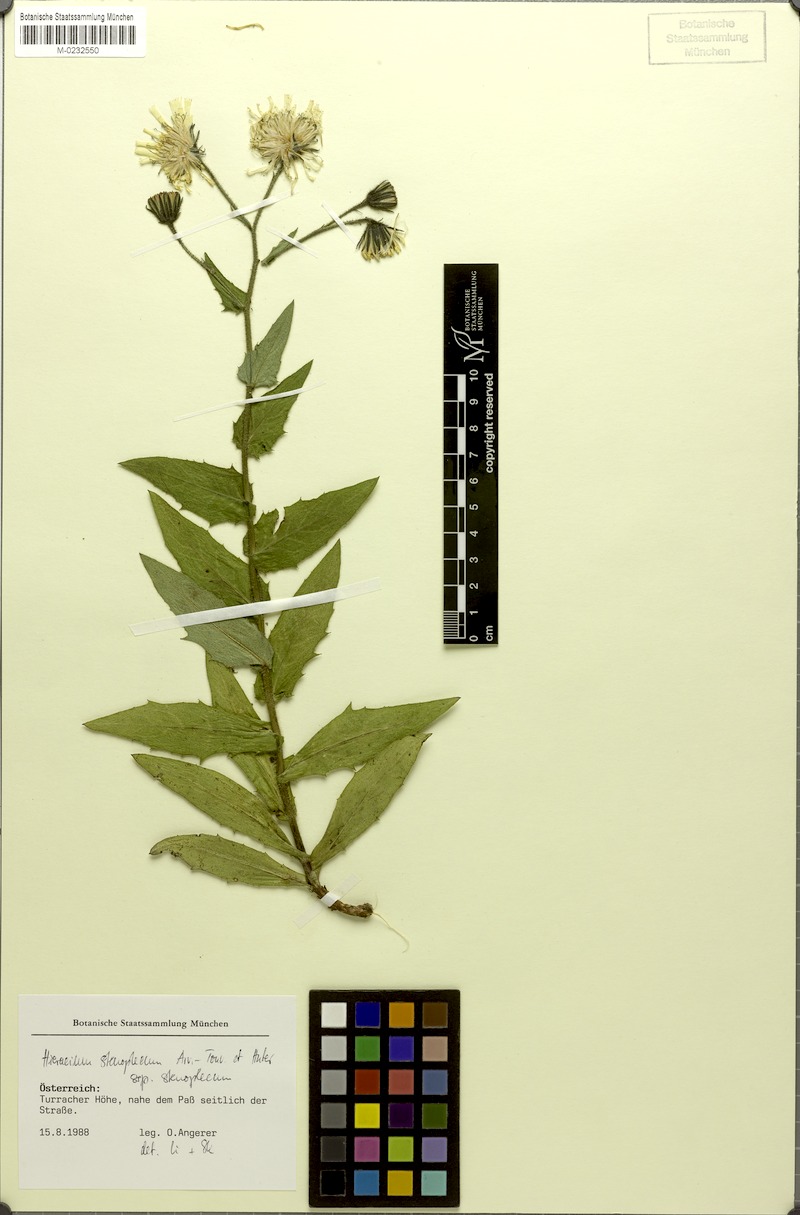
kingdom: Plantae
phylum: Tracheophyta
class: Magnoliopsida
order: Asterales
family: Asteraceae
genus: Hieracium
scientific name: Hieracium stenoplecum
